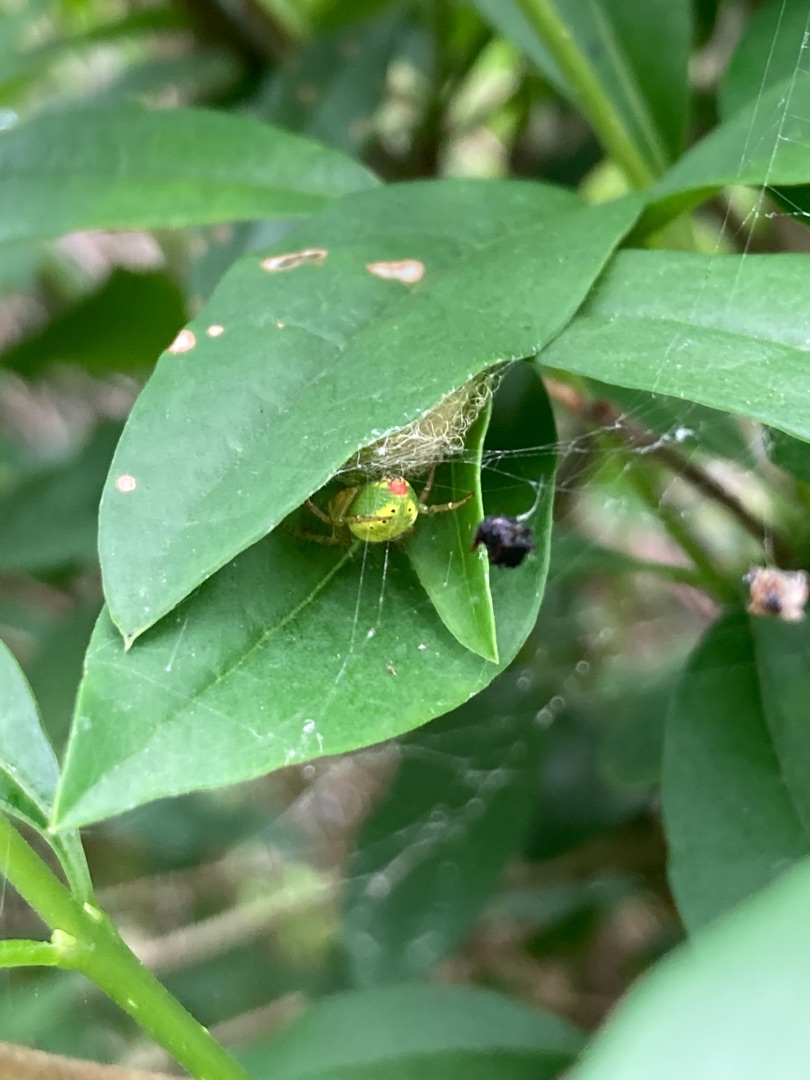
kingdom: Animalia
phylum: Arthropoda
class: Arachnida
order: Araneae
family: Araneidae
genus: Araniella
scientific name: Araniella
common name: Agurkeedderkopslægten
